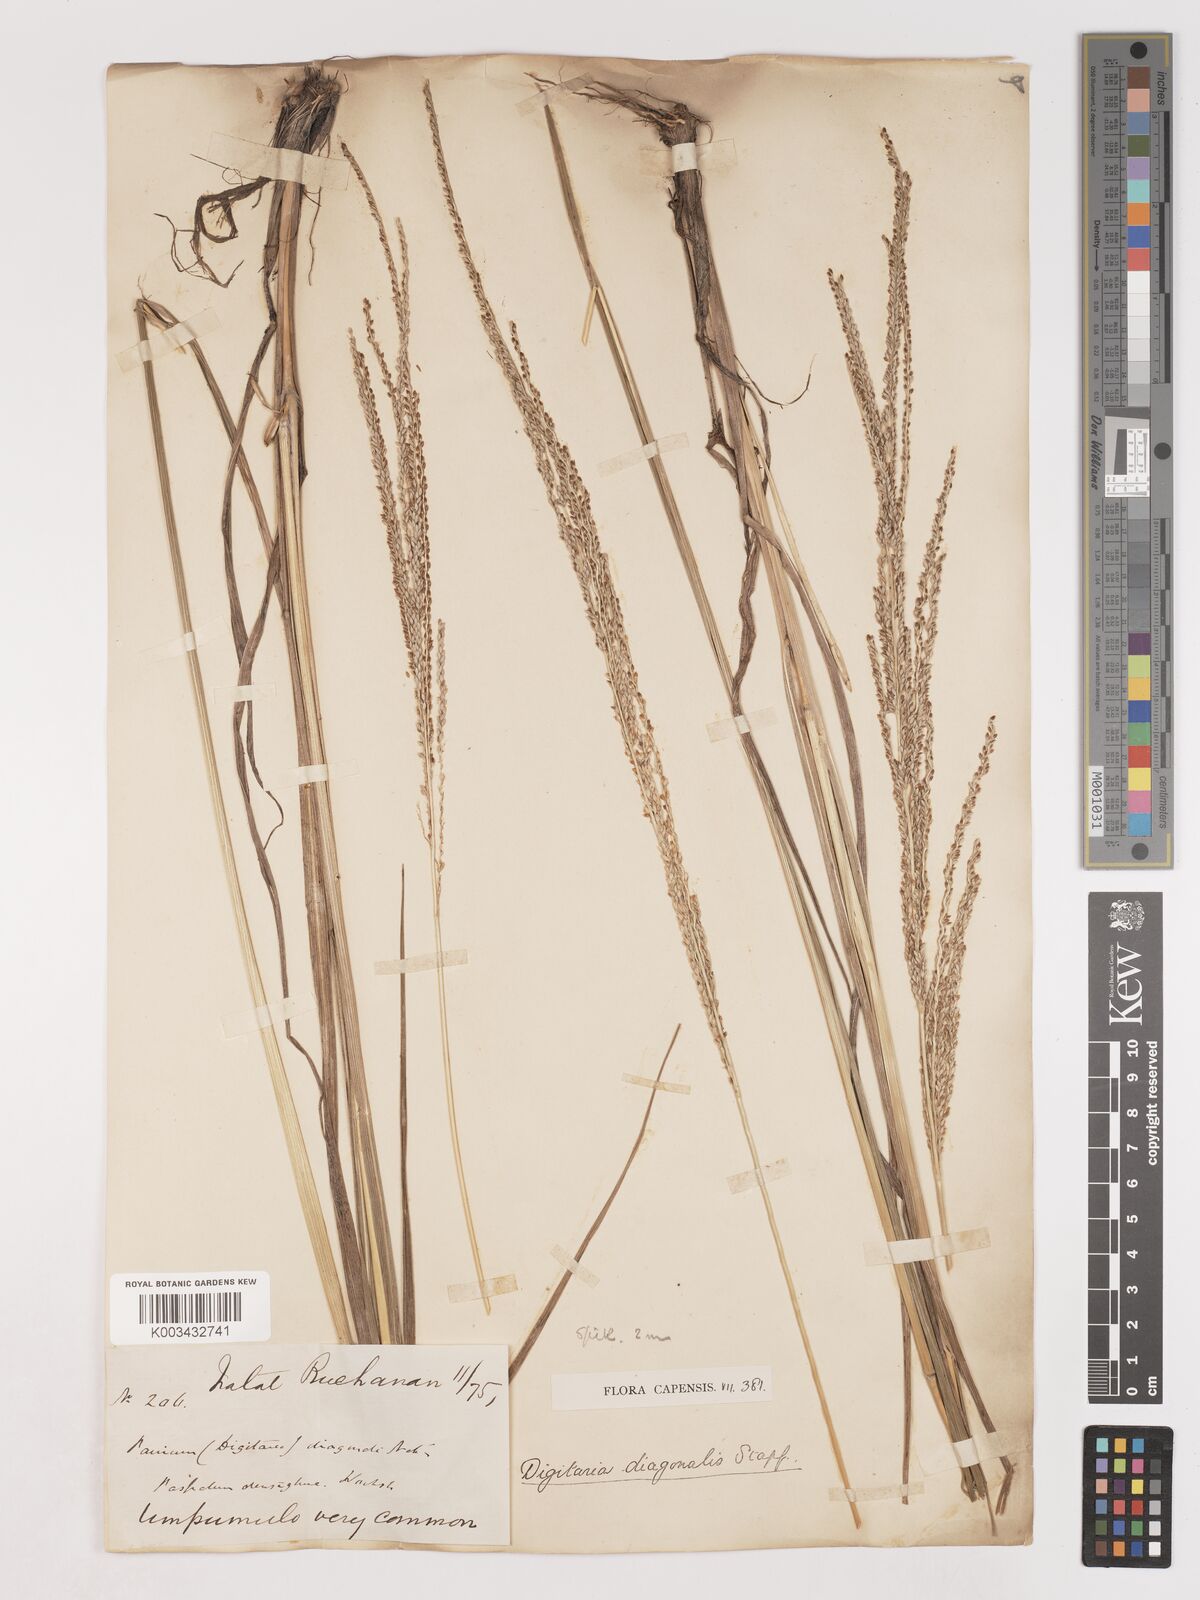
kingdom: Plantae
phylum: Tracheophyta
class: Liliopsida
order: Poales
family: Poaceae
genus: Digitaria
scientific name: Digitaria diagonalis
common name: Brown-seed finger grass
